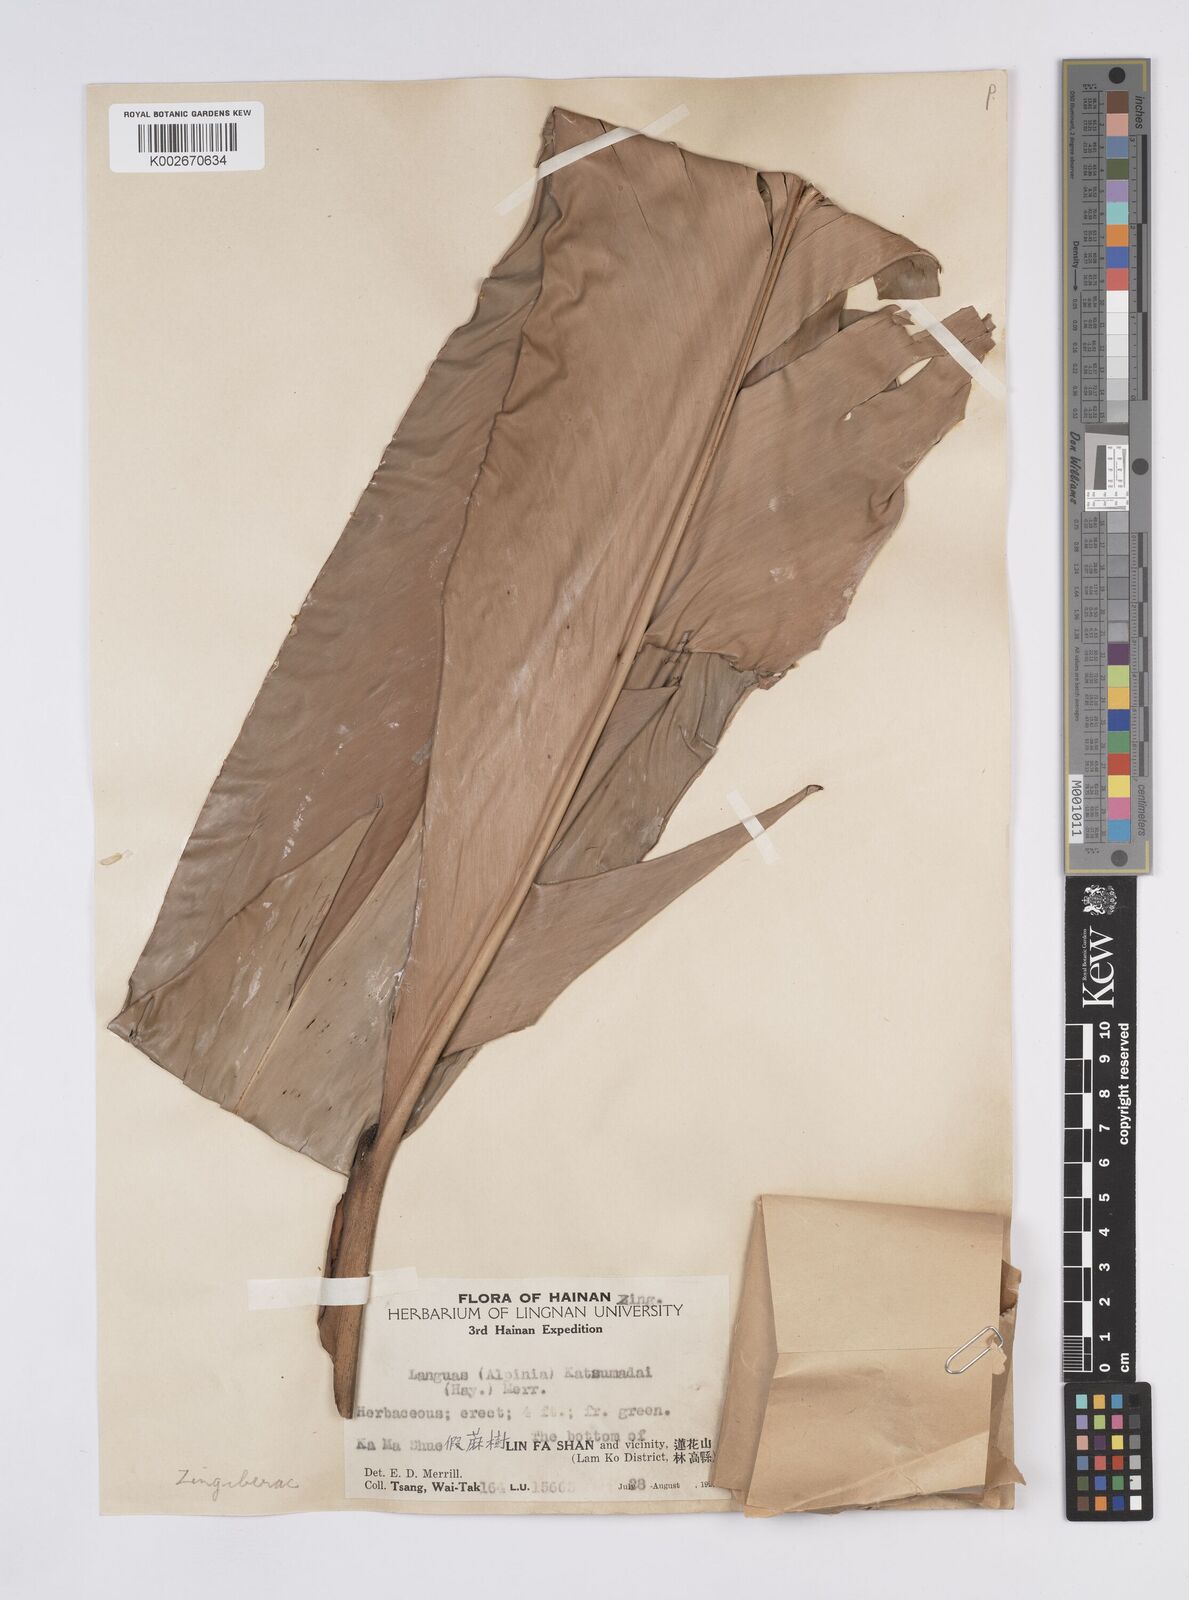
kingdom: Plantae
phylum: Tracheophyta
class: Liliopsida
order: Zingiberales
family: Zingiberaceae
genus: Alpinia
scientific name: Alpinia hainanensis
